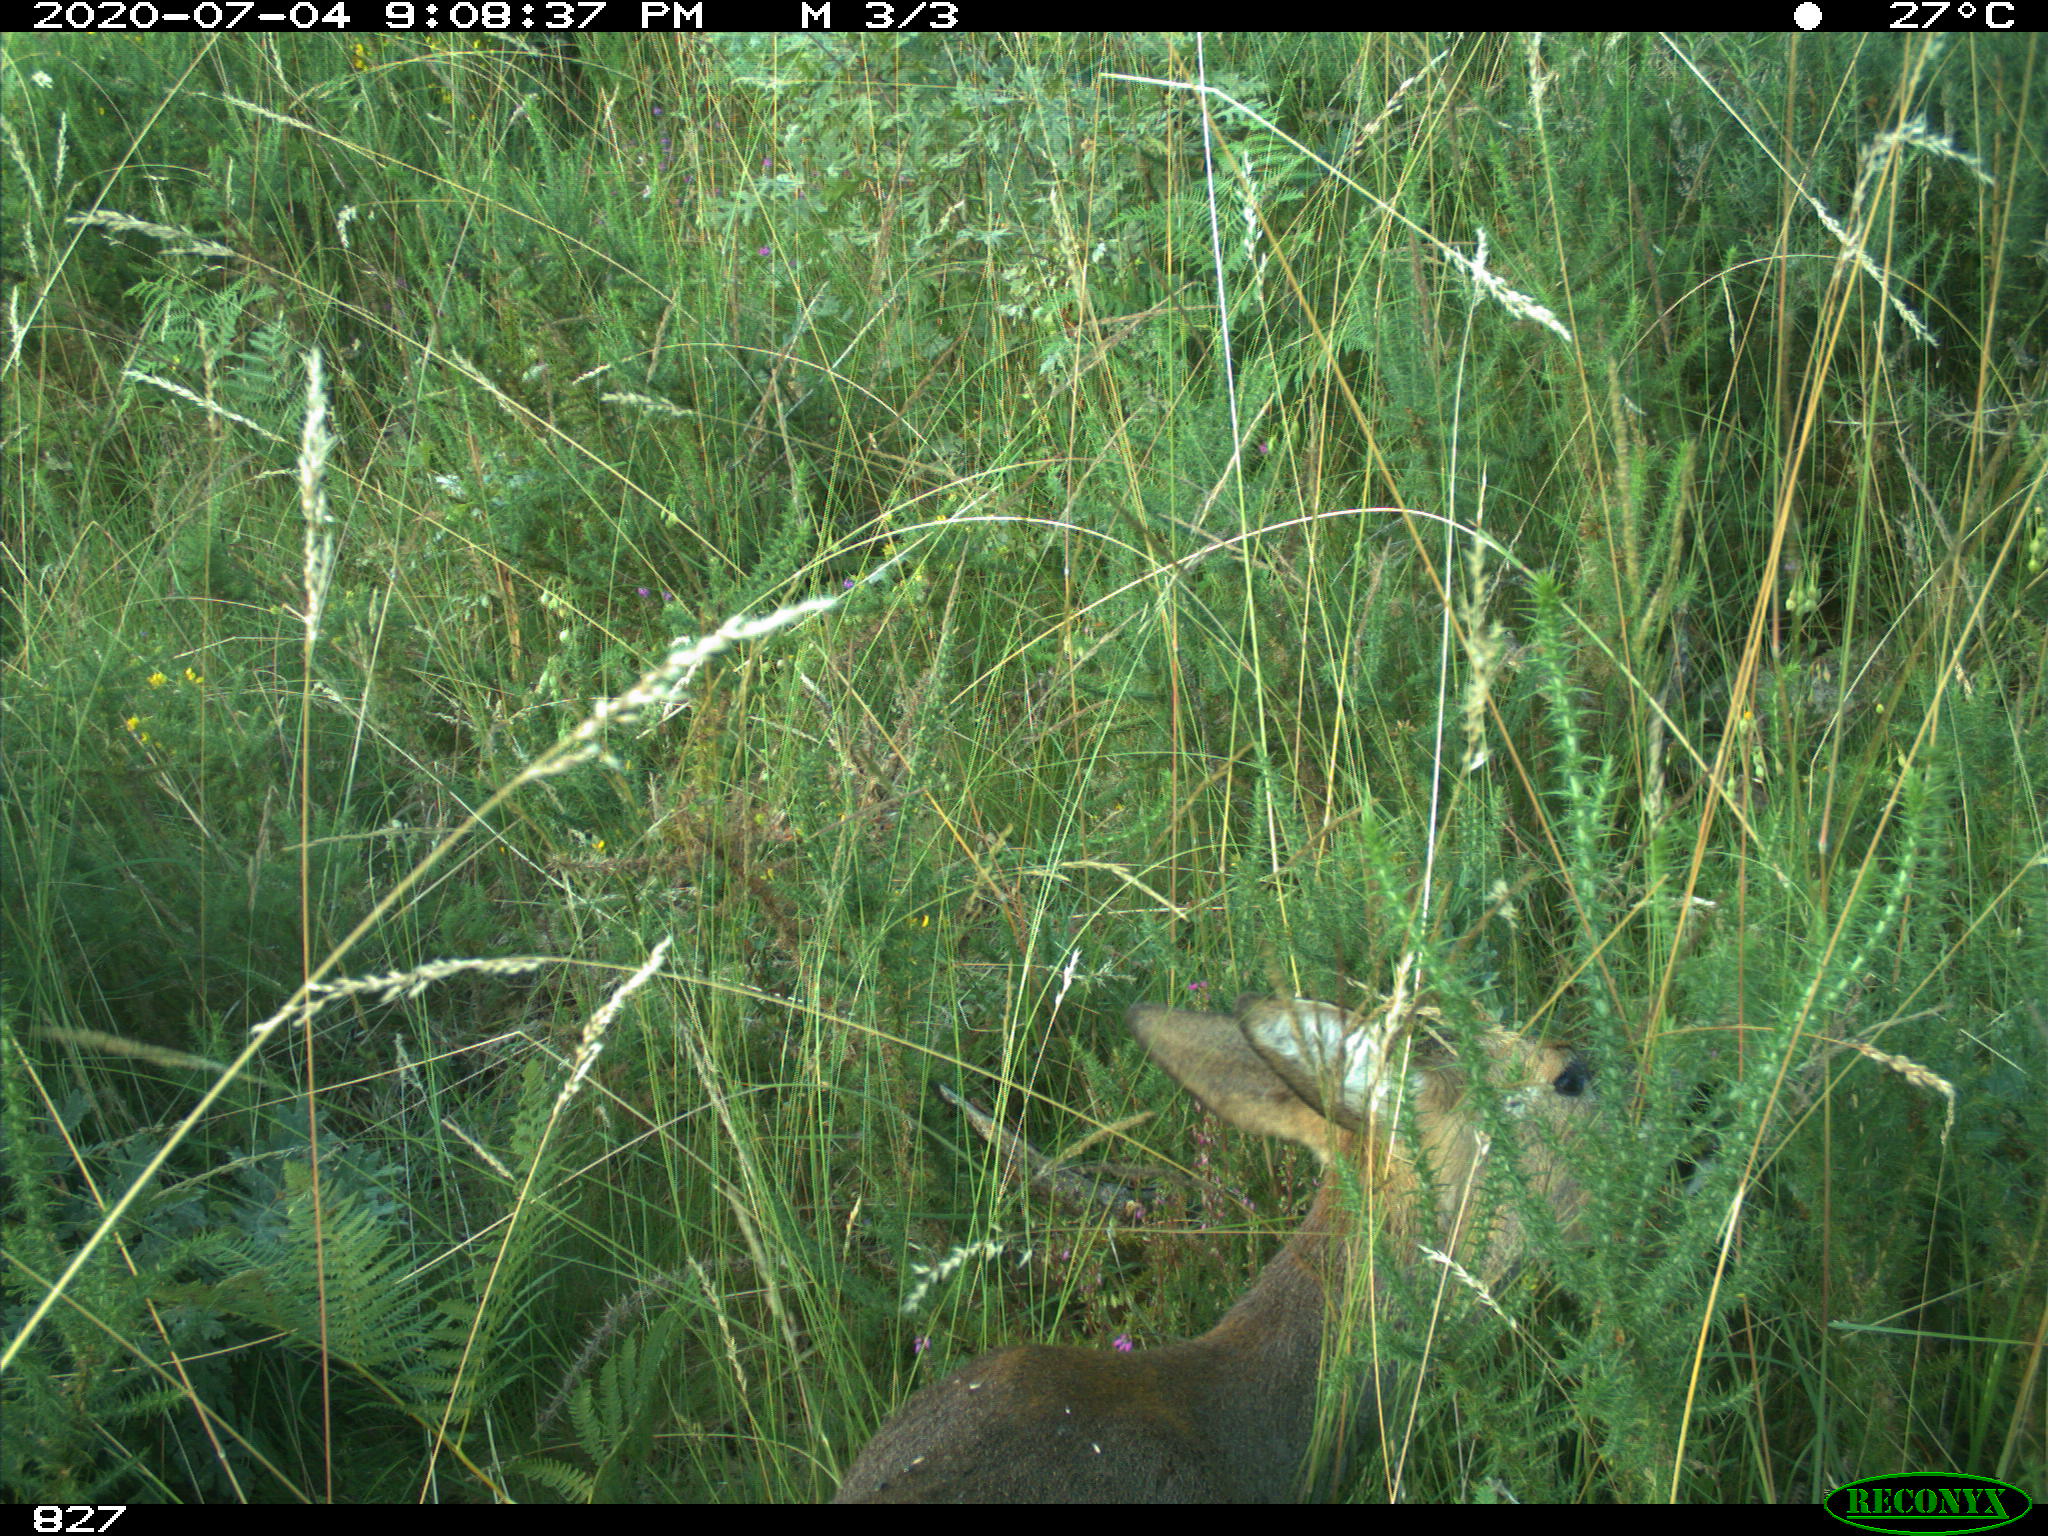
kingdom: Animalia
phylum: Chordata
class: Mammalia
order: Artiodactyla
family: Cervidae
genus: Capreolus
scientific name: Capreolus capreolus
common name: Western roe deer
